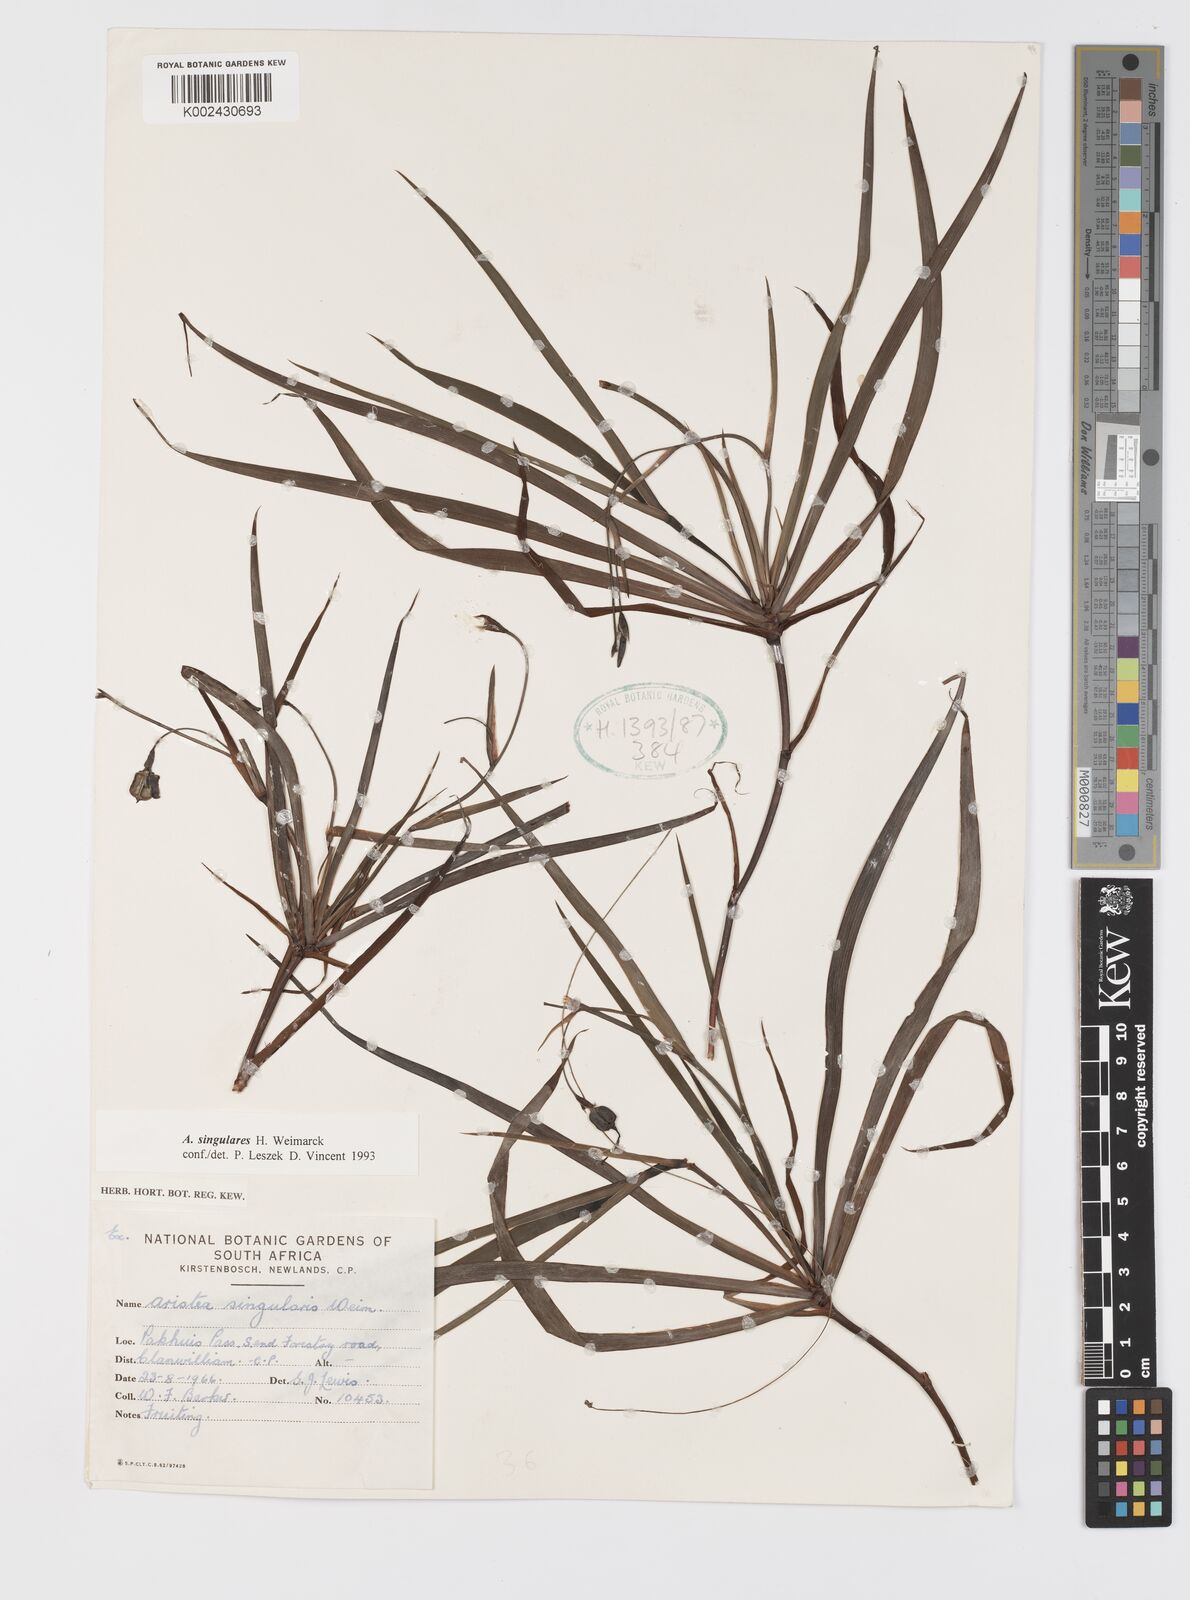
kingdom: Plantae
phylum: Tracheophyta
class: Liliopsida
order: Asparagales
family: Iridaceae
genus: Aristea
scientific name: Aristea singularis
